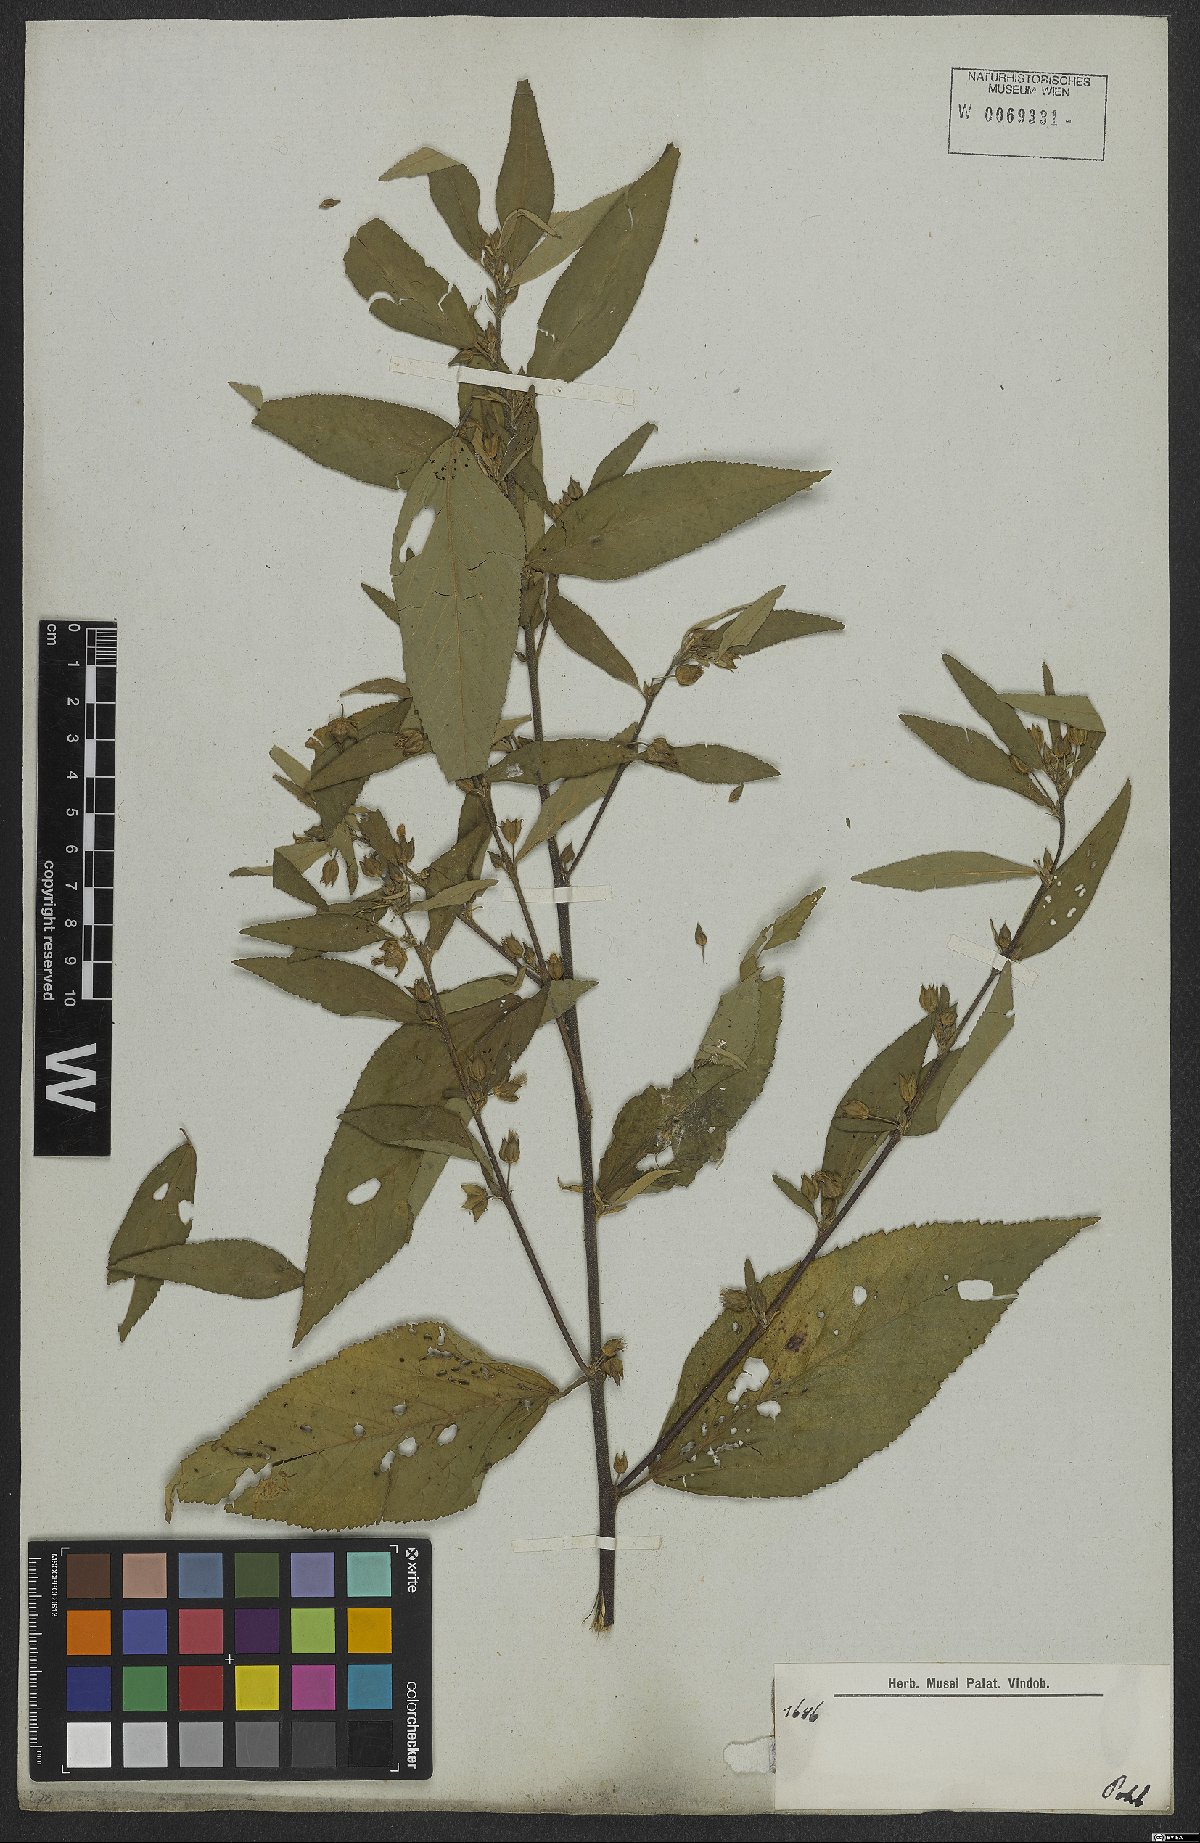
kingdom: Plantae
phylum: Tracheophyta
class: Magnoliopsida
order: Malvales
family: Malvaceae
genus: Sida
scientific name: Sida rhombifolia
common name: Queensland-hemp
